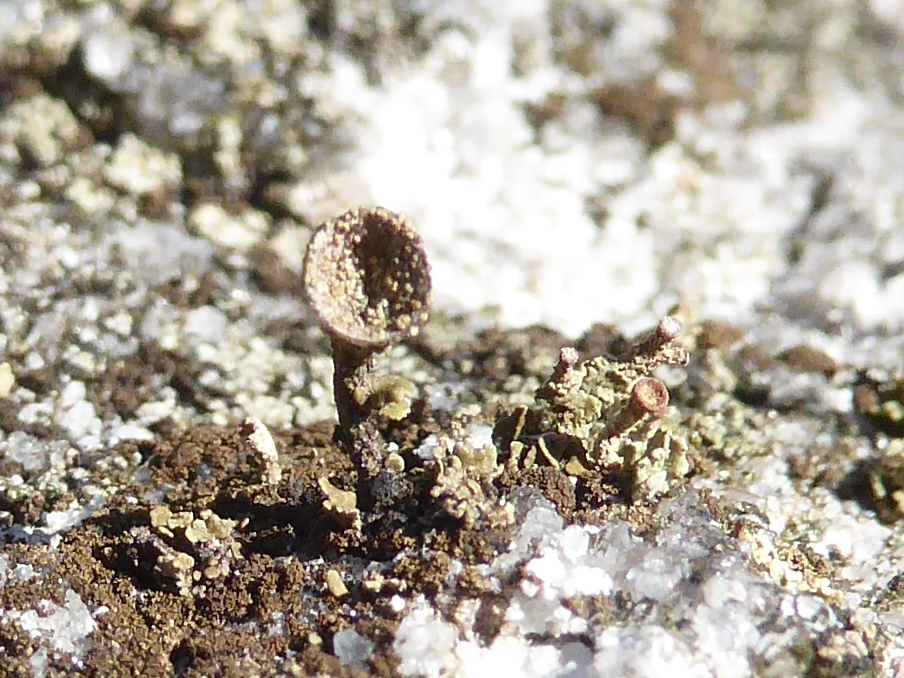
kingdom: Fungi
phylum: Ascomycota
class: Lecanoromycetes
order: Lecanorales
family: Cladoniaceae
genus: Cladonia
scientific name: Cladonia pyxidata
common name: tragt-bægerlav
